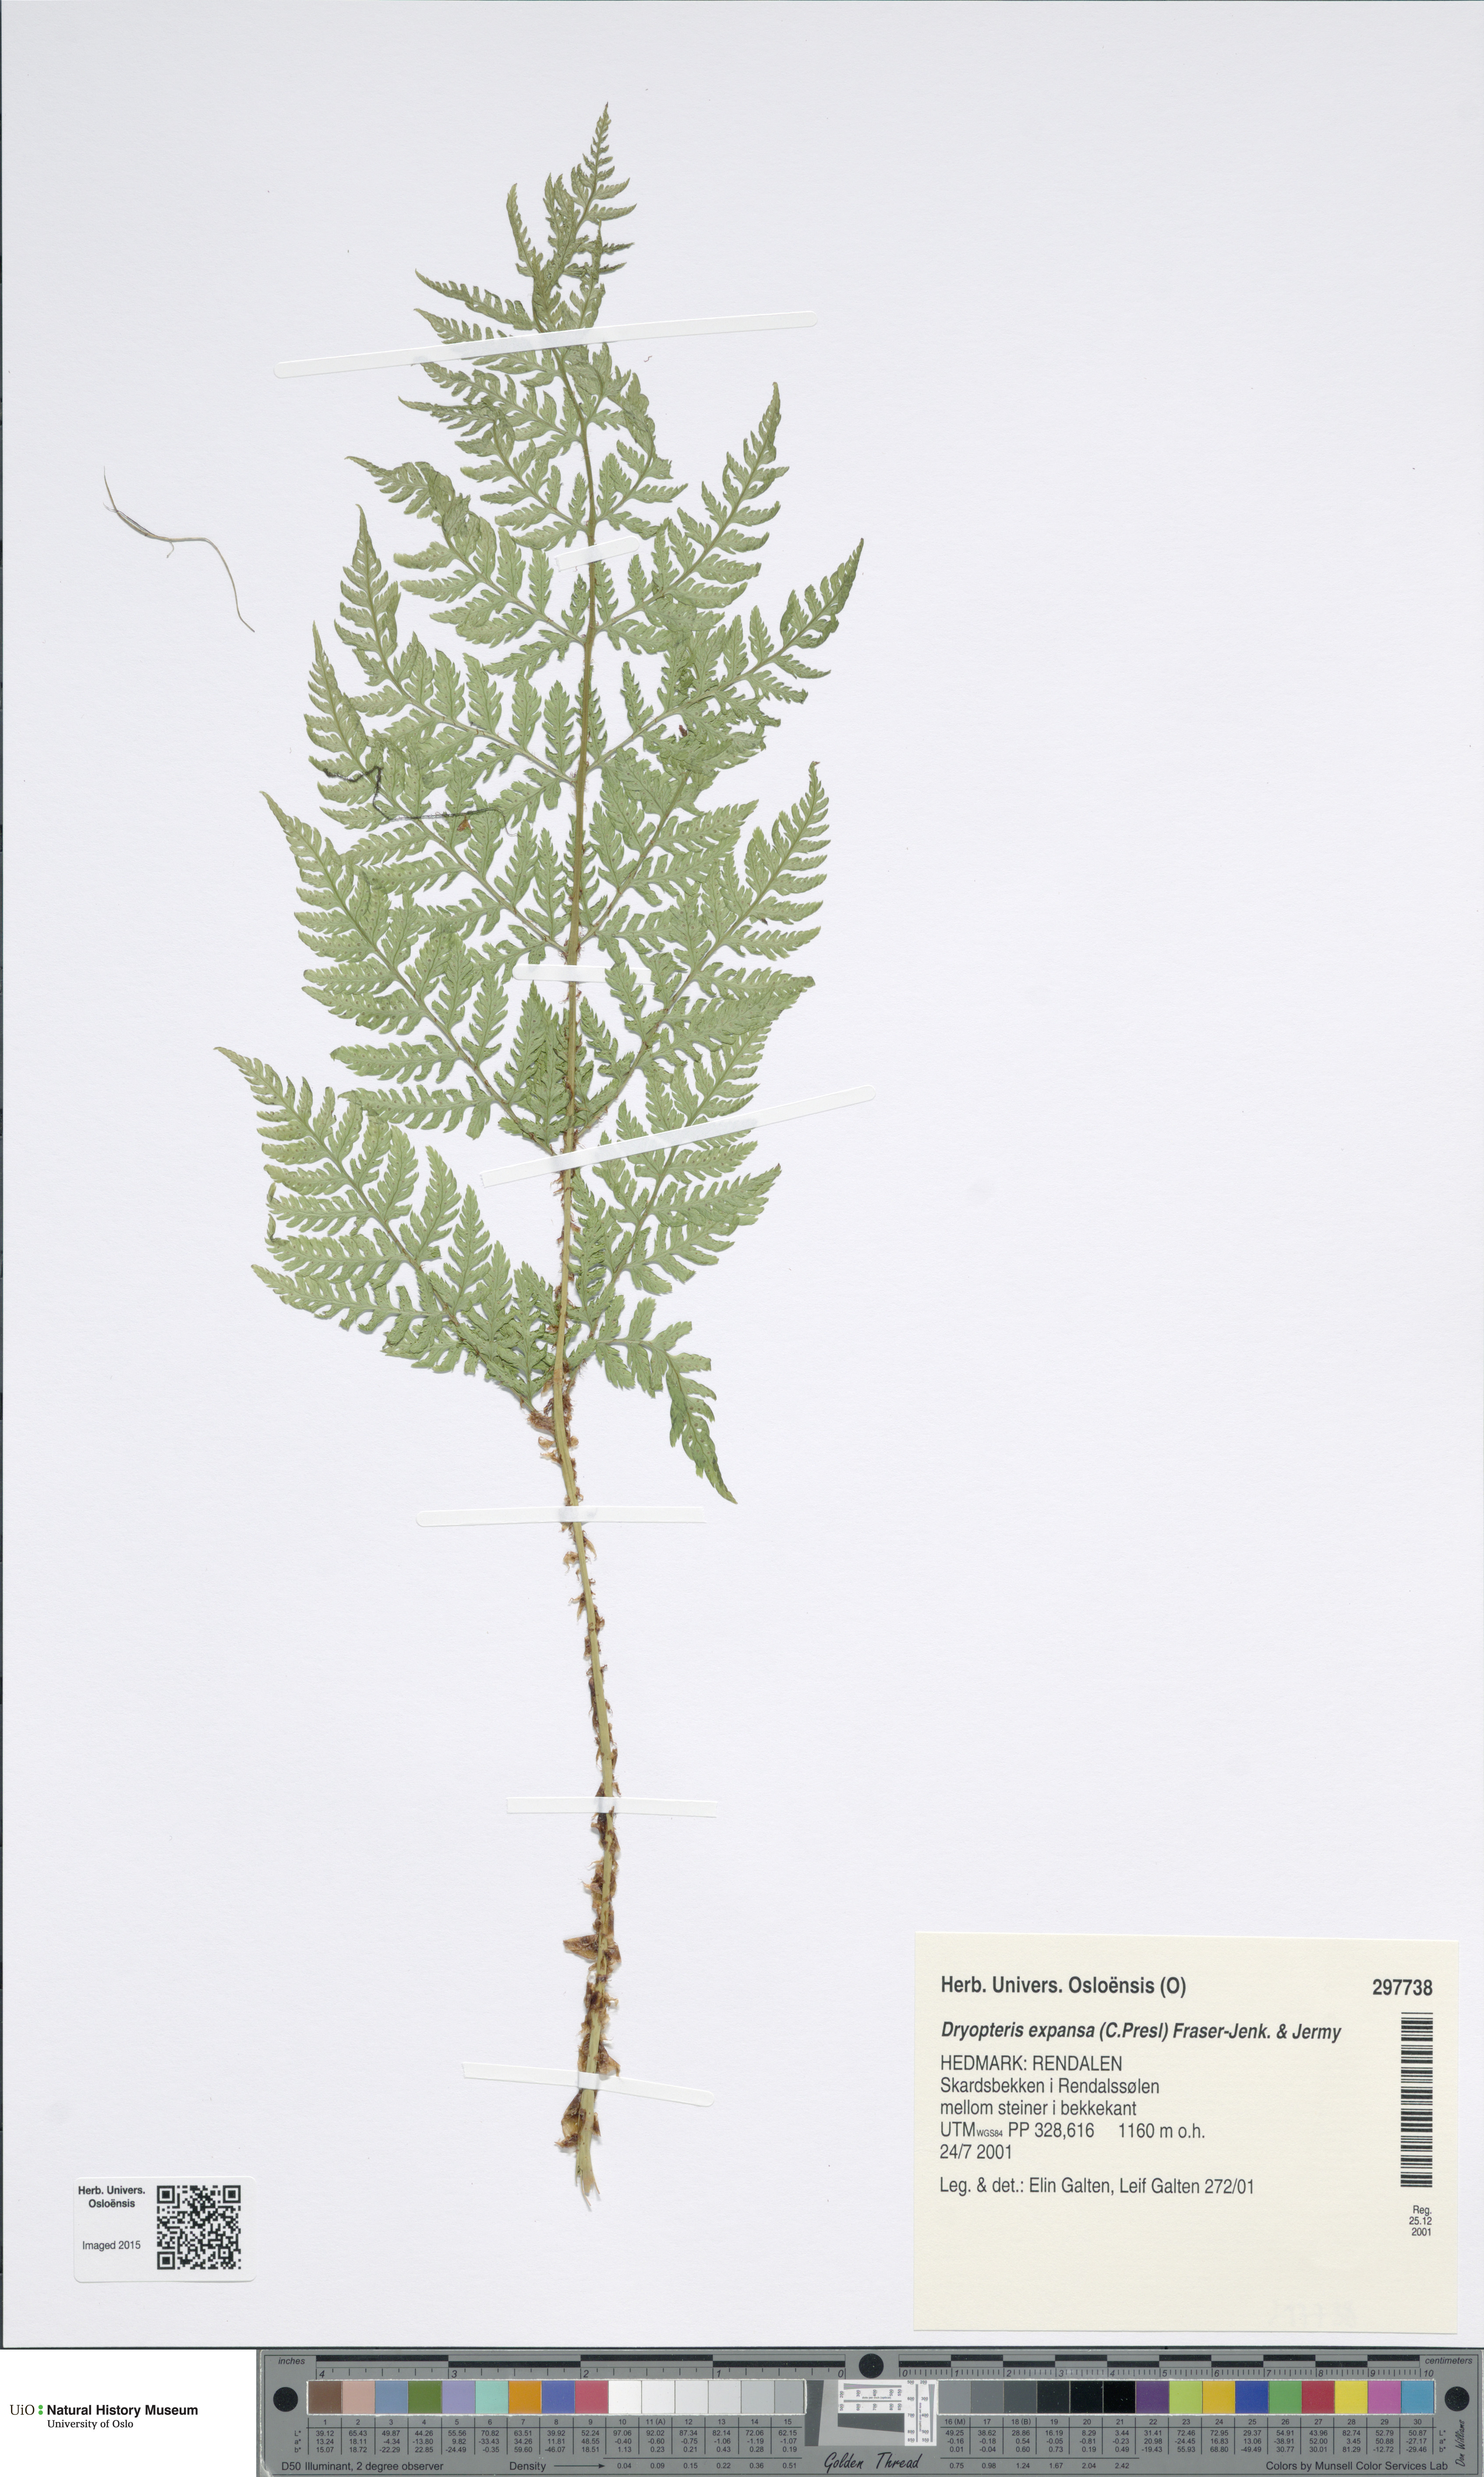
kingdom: Plantae
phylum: Tracheophyta
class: Polypodiopsida
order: Polypodiales
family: Dryopteridaceae
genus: Dryopteris
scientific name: Dryopteris expansa
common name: Northern buckler fern
